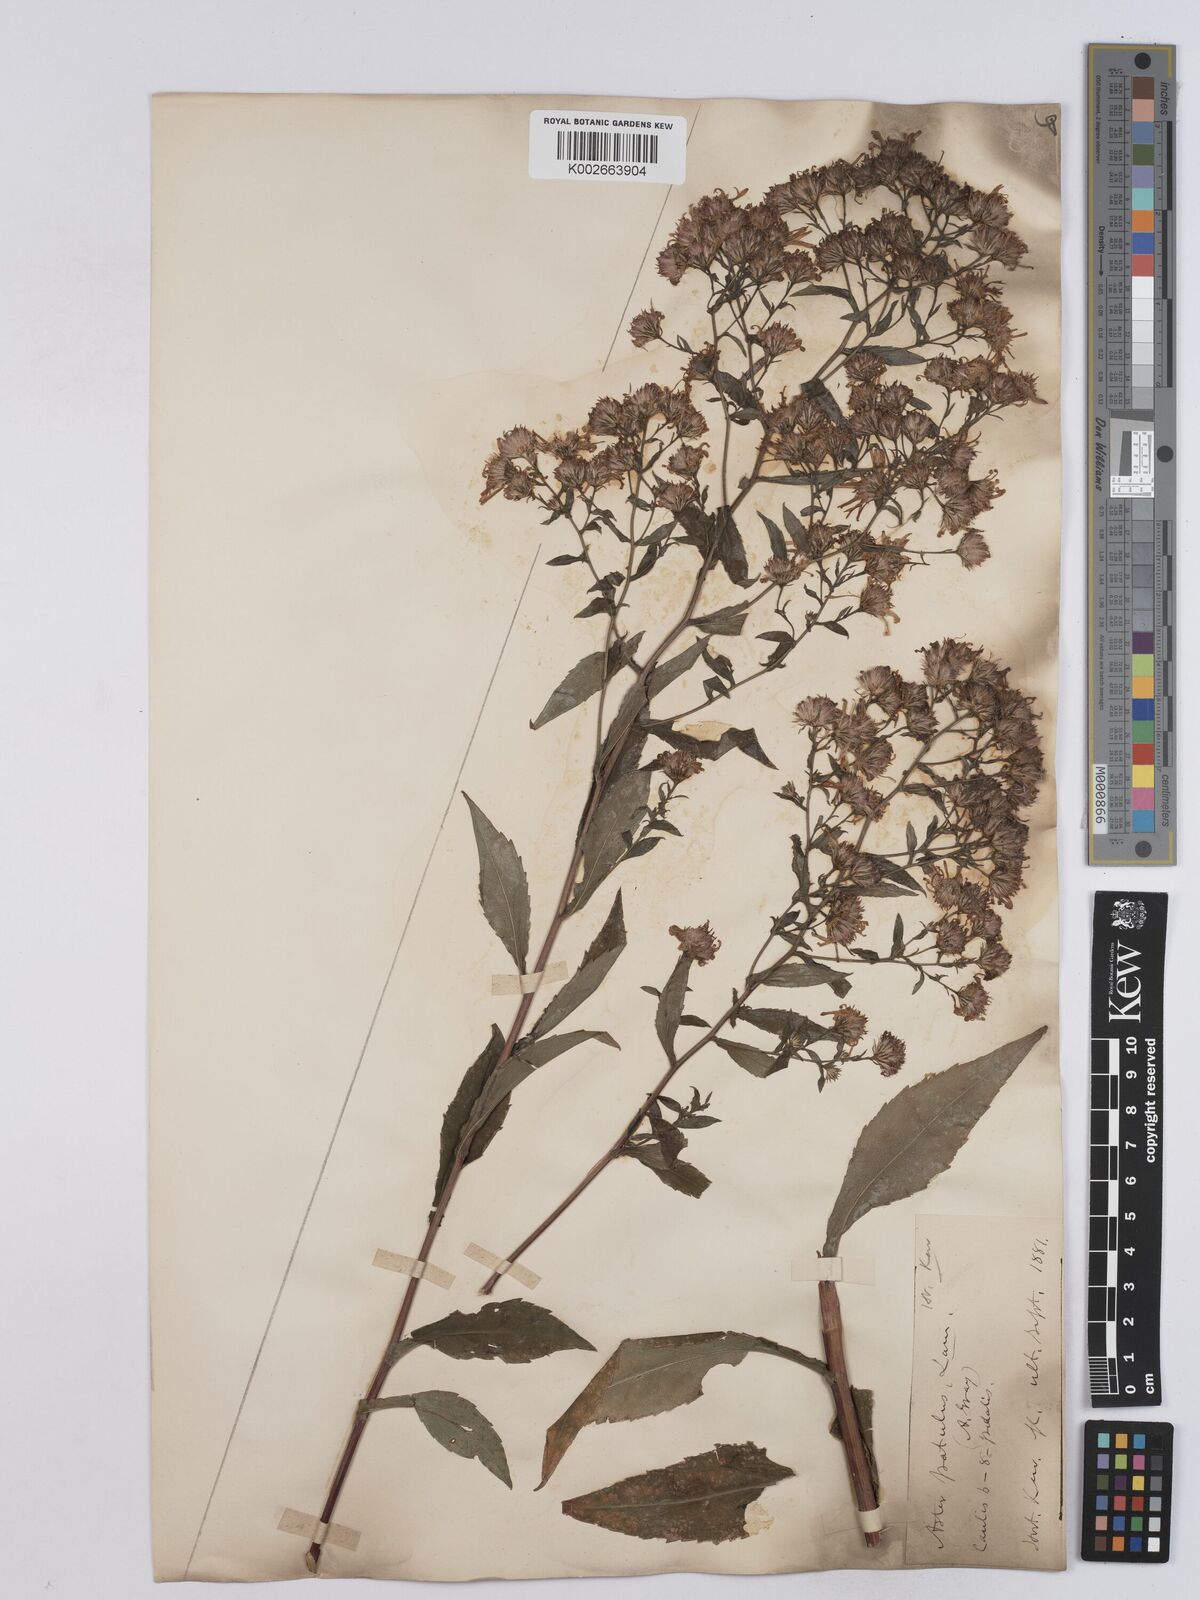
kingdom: Plantae
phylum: Tracheophyta
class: Magnoliopsida
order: Asterales
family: Asteraceae
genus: Symphyotrichum
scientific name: Symphyotrichum
